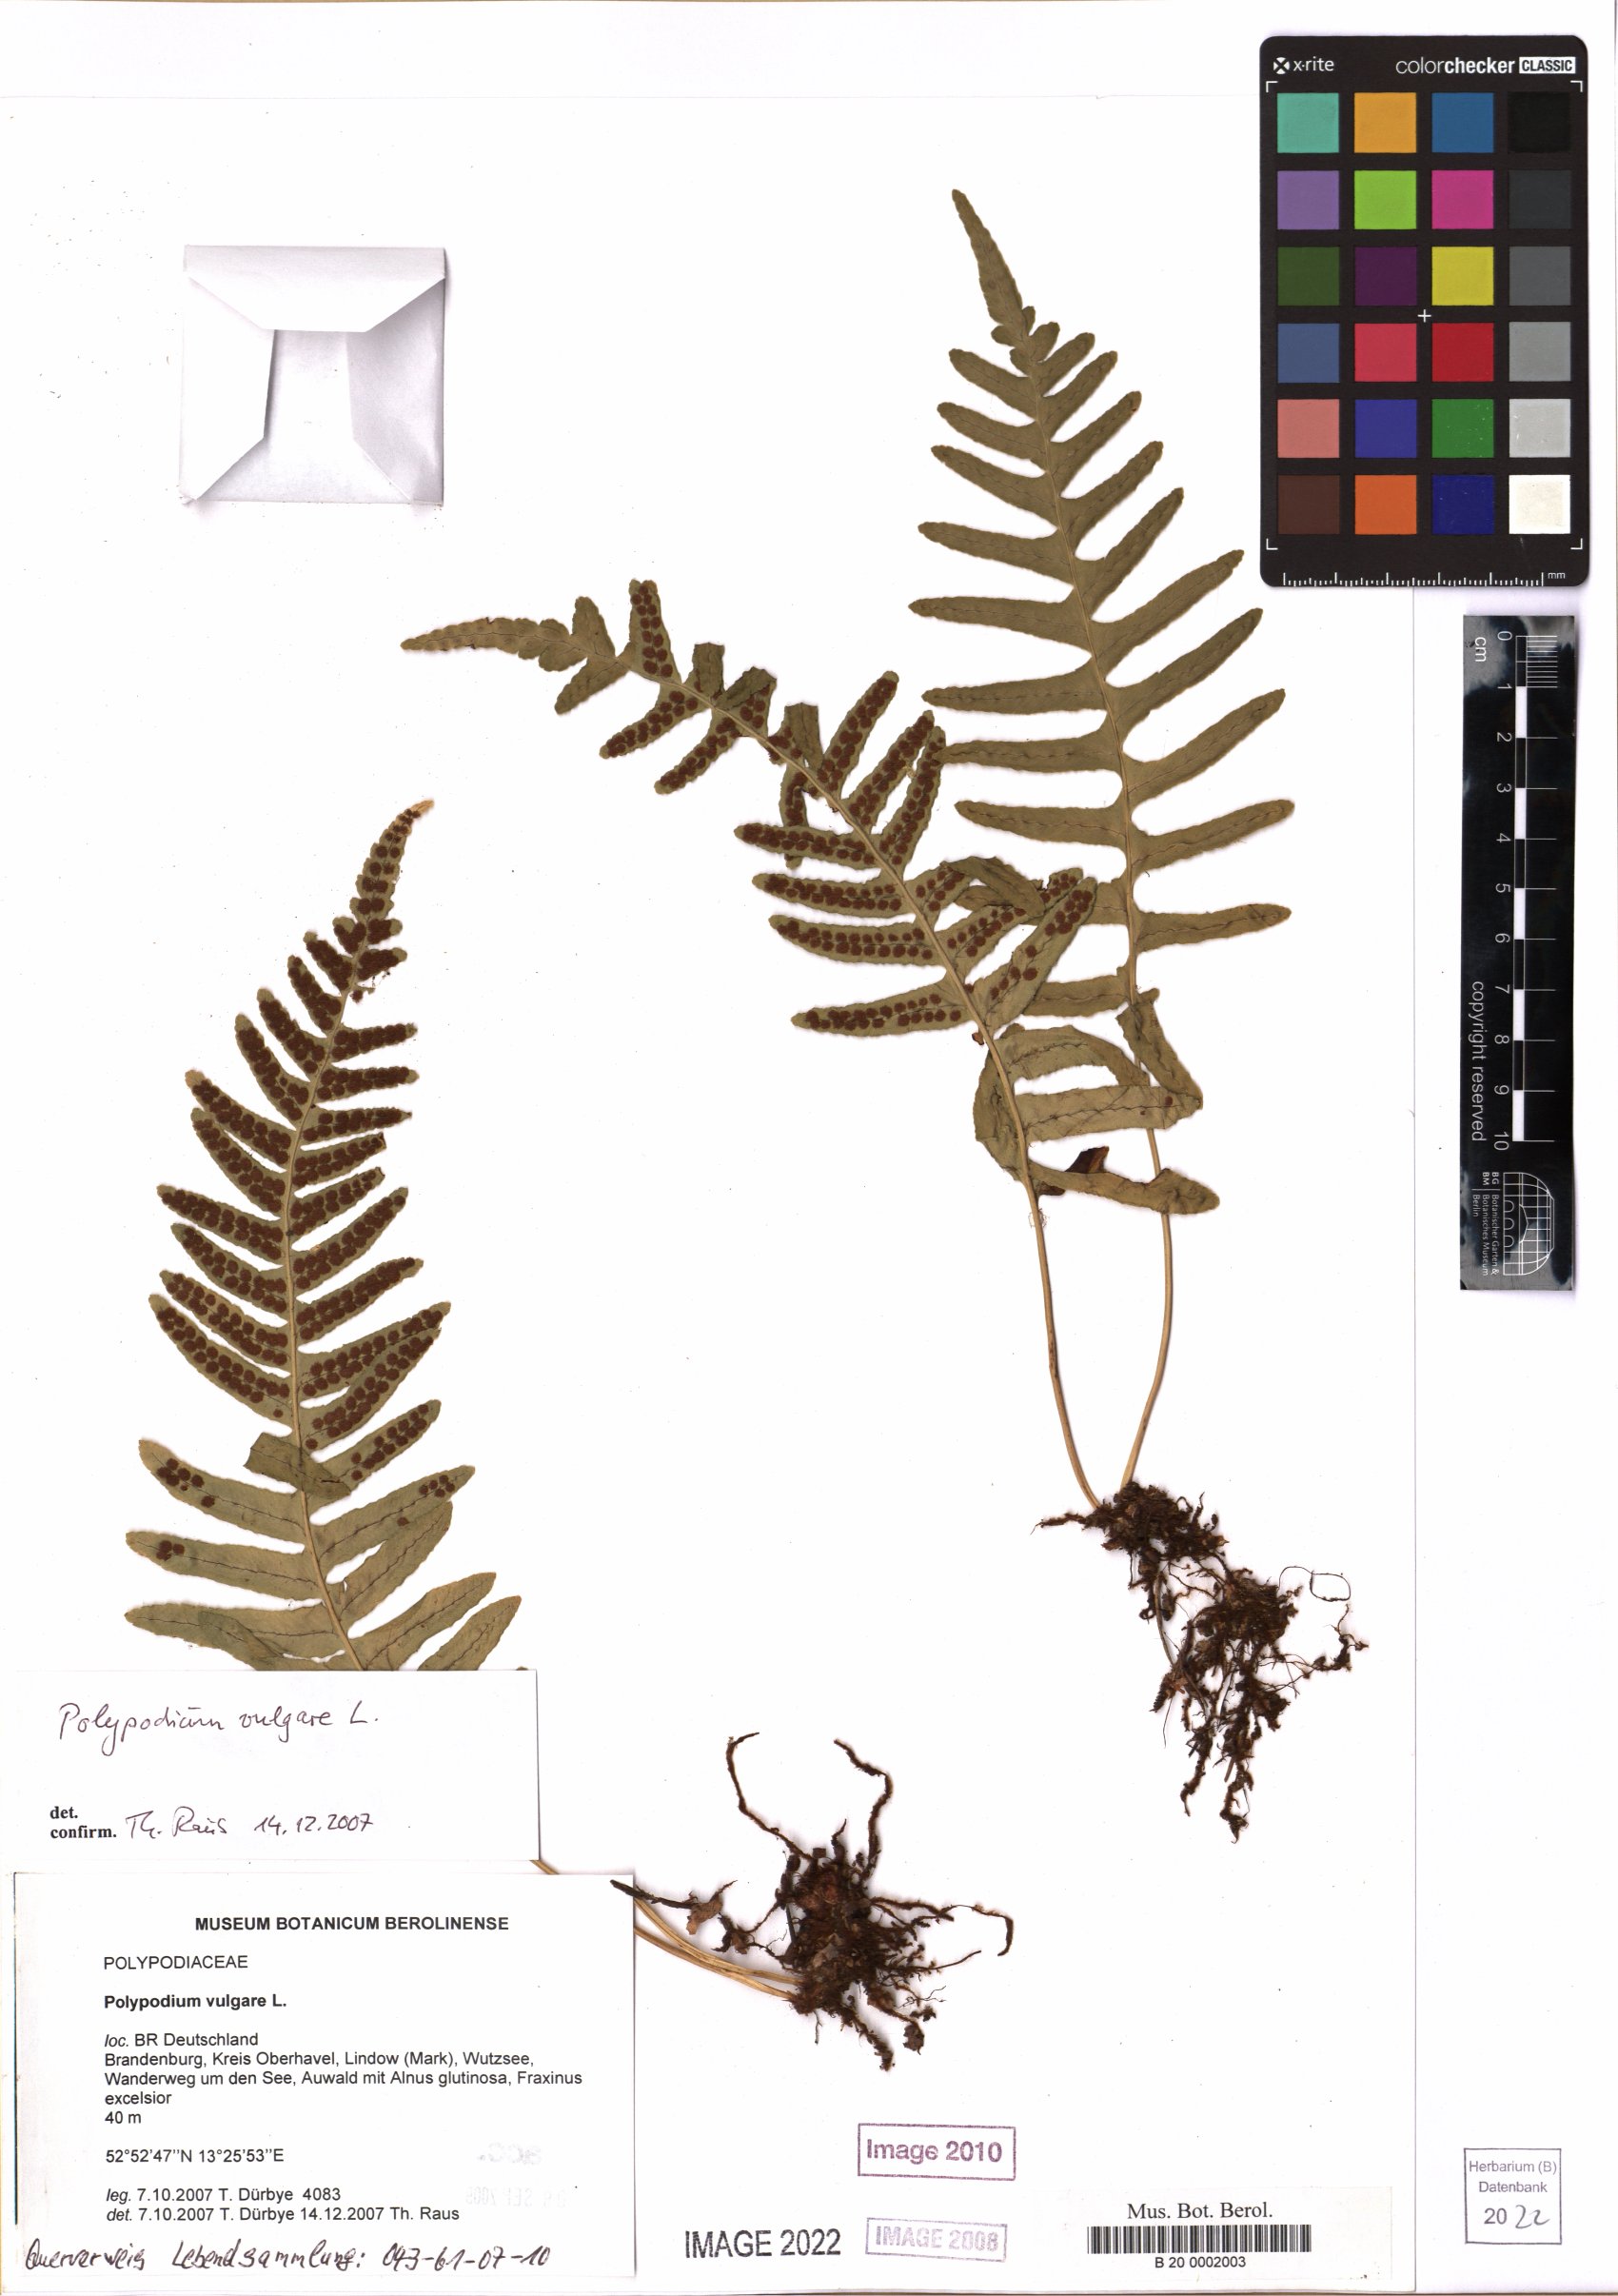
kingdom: Plantae
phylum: Tracheophyta
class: Polypodiopsida
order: Polypodiales
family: Polypodiaceae
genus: Polypodium
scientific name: Polypodium vulgare
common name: Common polypody
